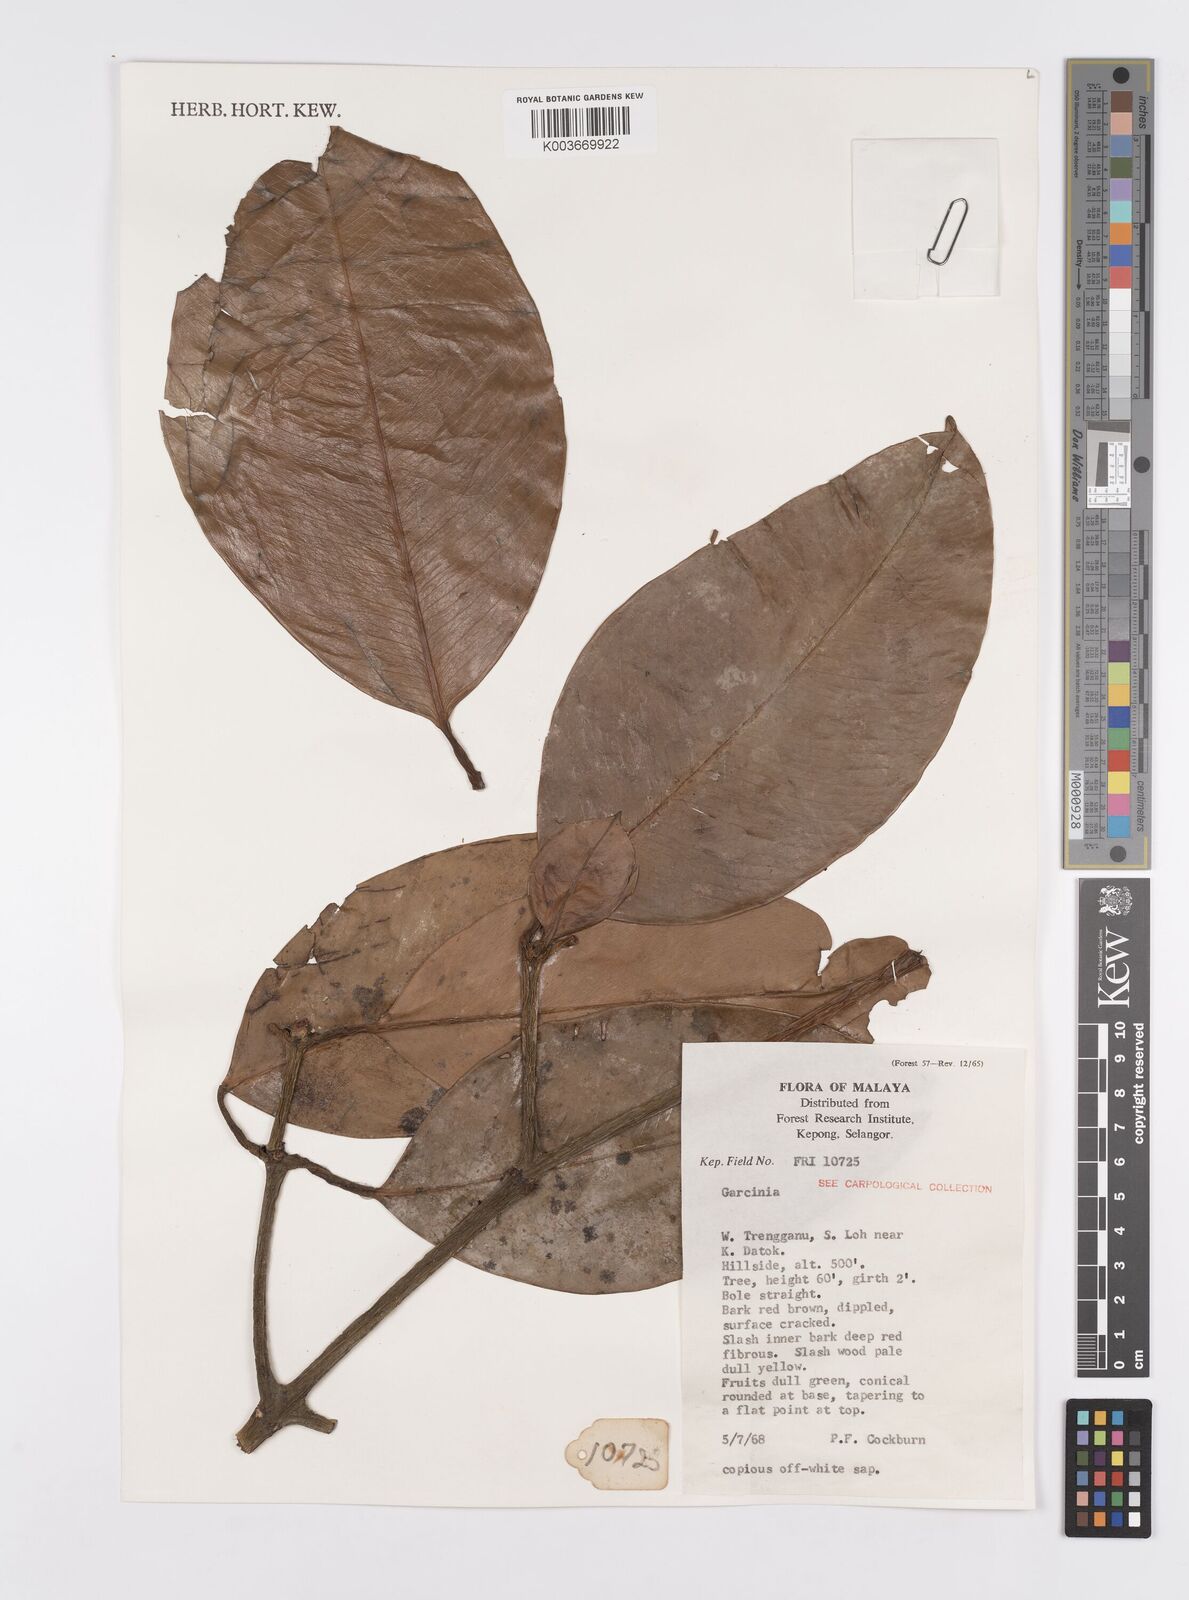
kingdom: Plantae
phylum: Tracheophyta
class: Magnoliopsida
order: Malpighiales
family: Clusiaceae
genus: Garcinia
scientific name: Garcinia
